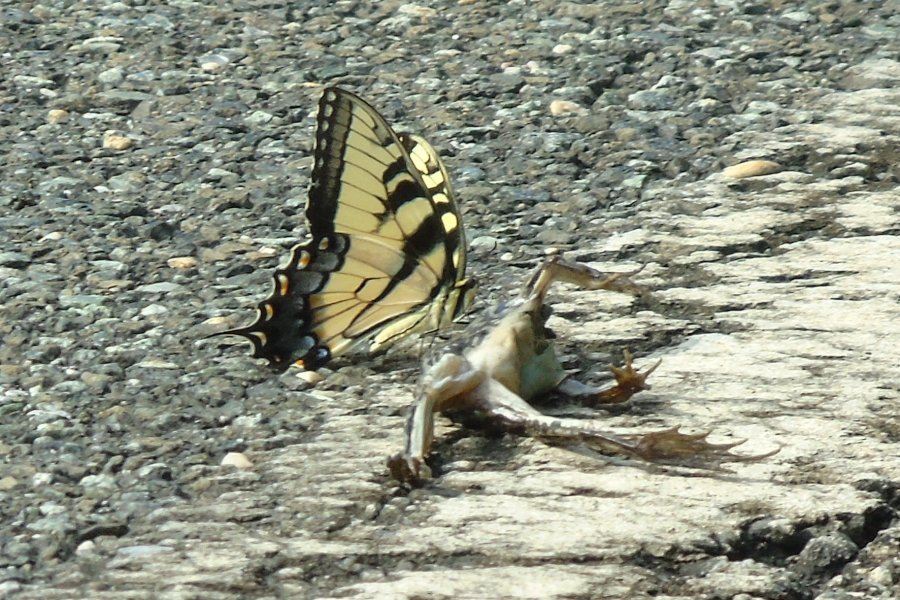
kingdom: Animalia
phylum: Arthropoda
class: Insecta
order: Lepidoptera
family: Papilionidae
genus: Pterourus
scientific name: Pterourus glaucus
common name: Eastern Tiger Swallowtail
